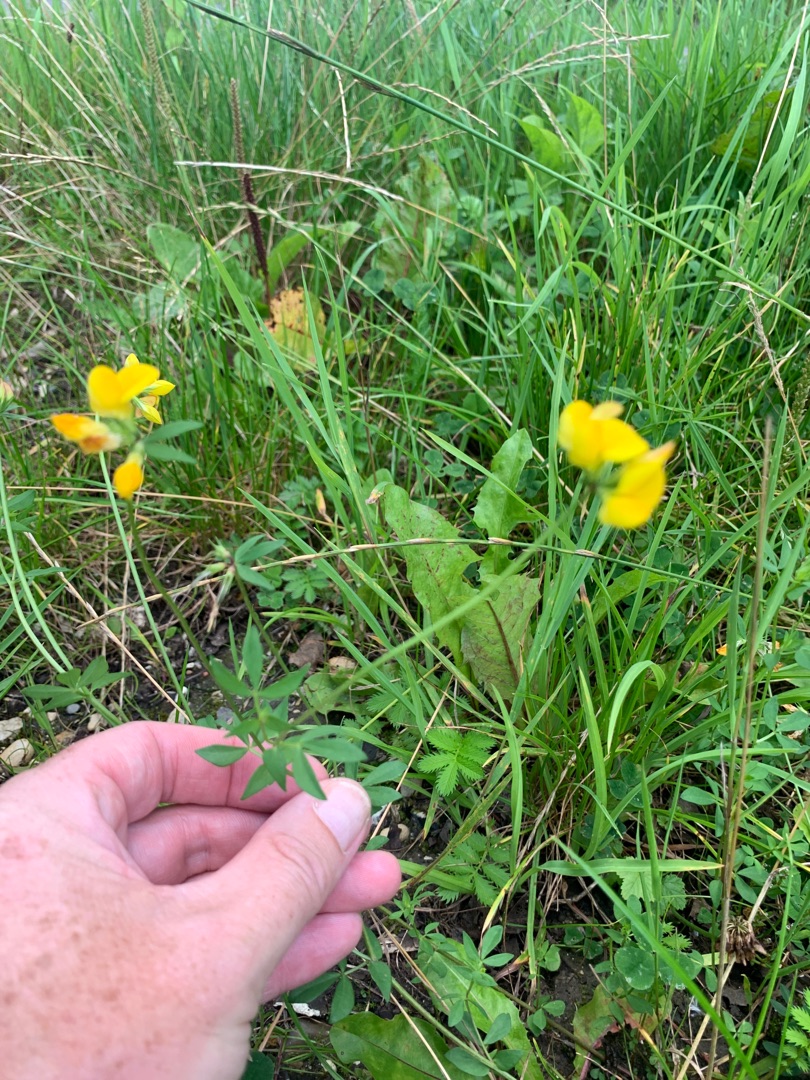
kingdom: Plantae
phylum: Tracheophyta
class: Magnoliopsida
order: Fabales
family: Fabaceae
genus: Lotus
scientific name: Lotus corniculatus
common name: Almindelig kællingetand
